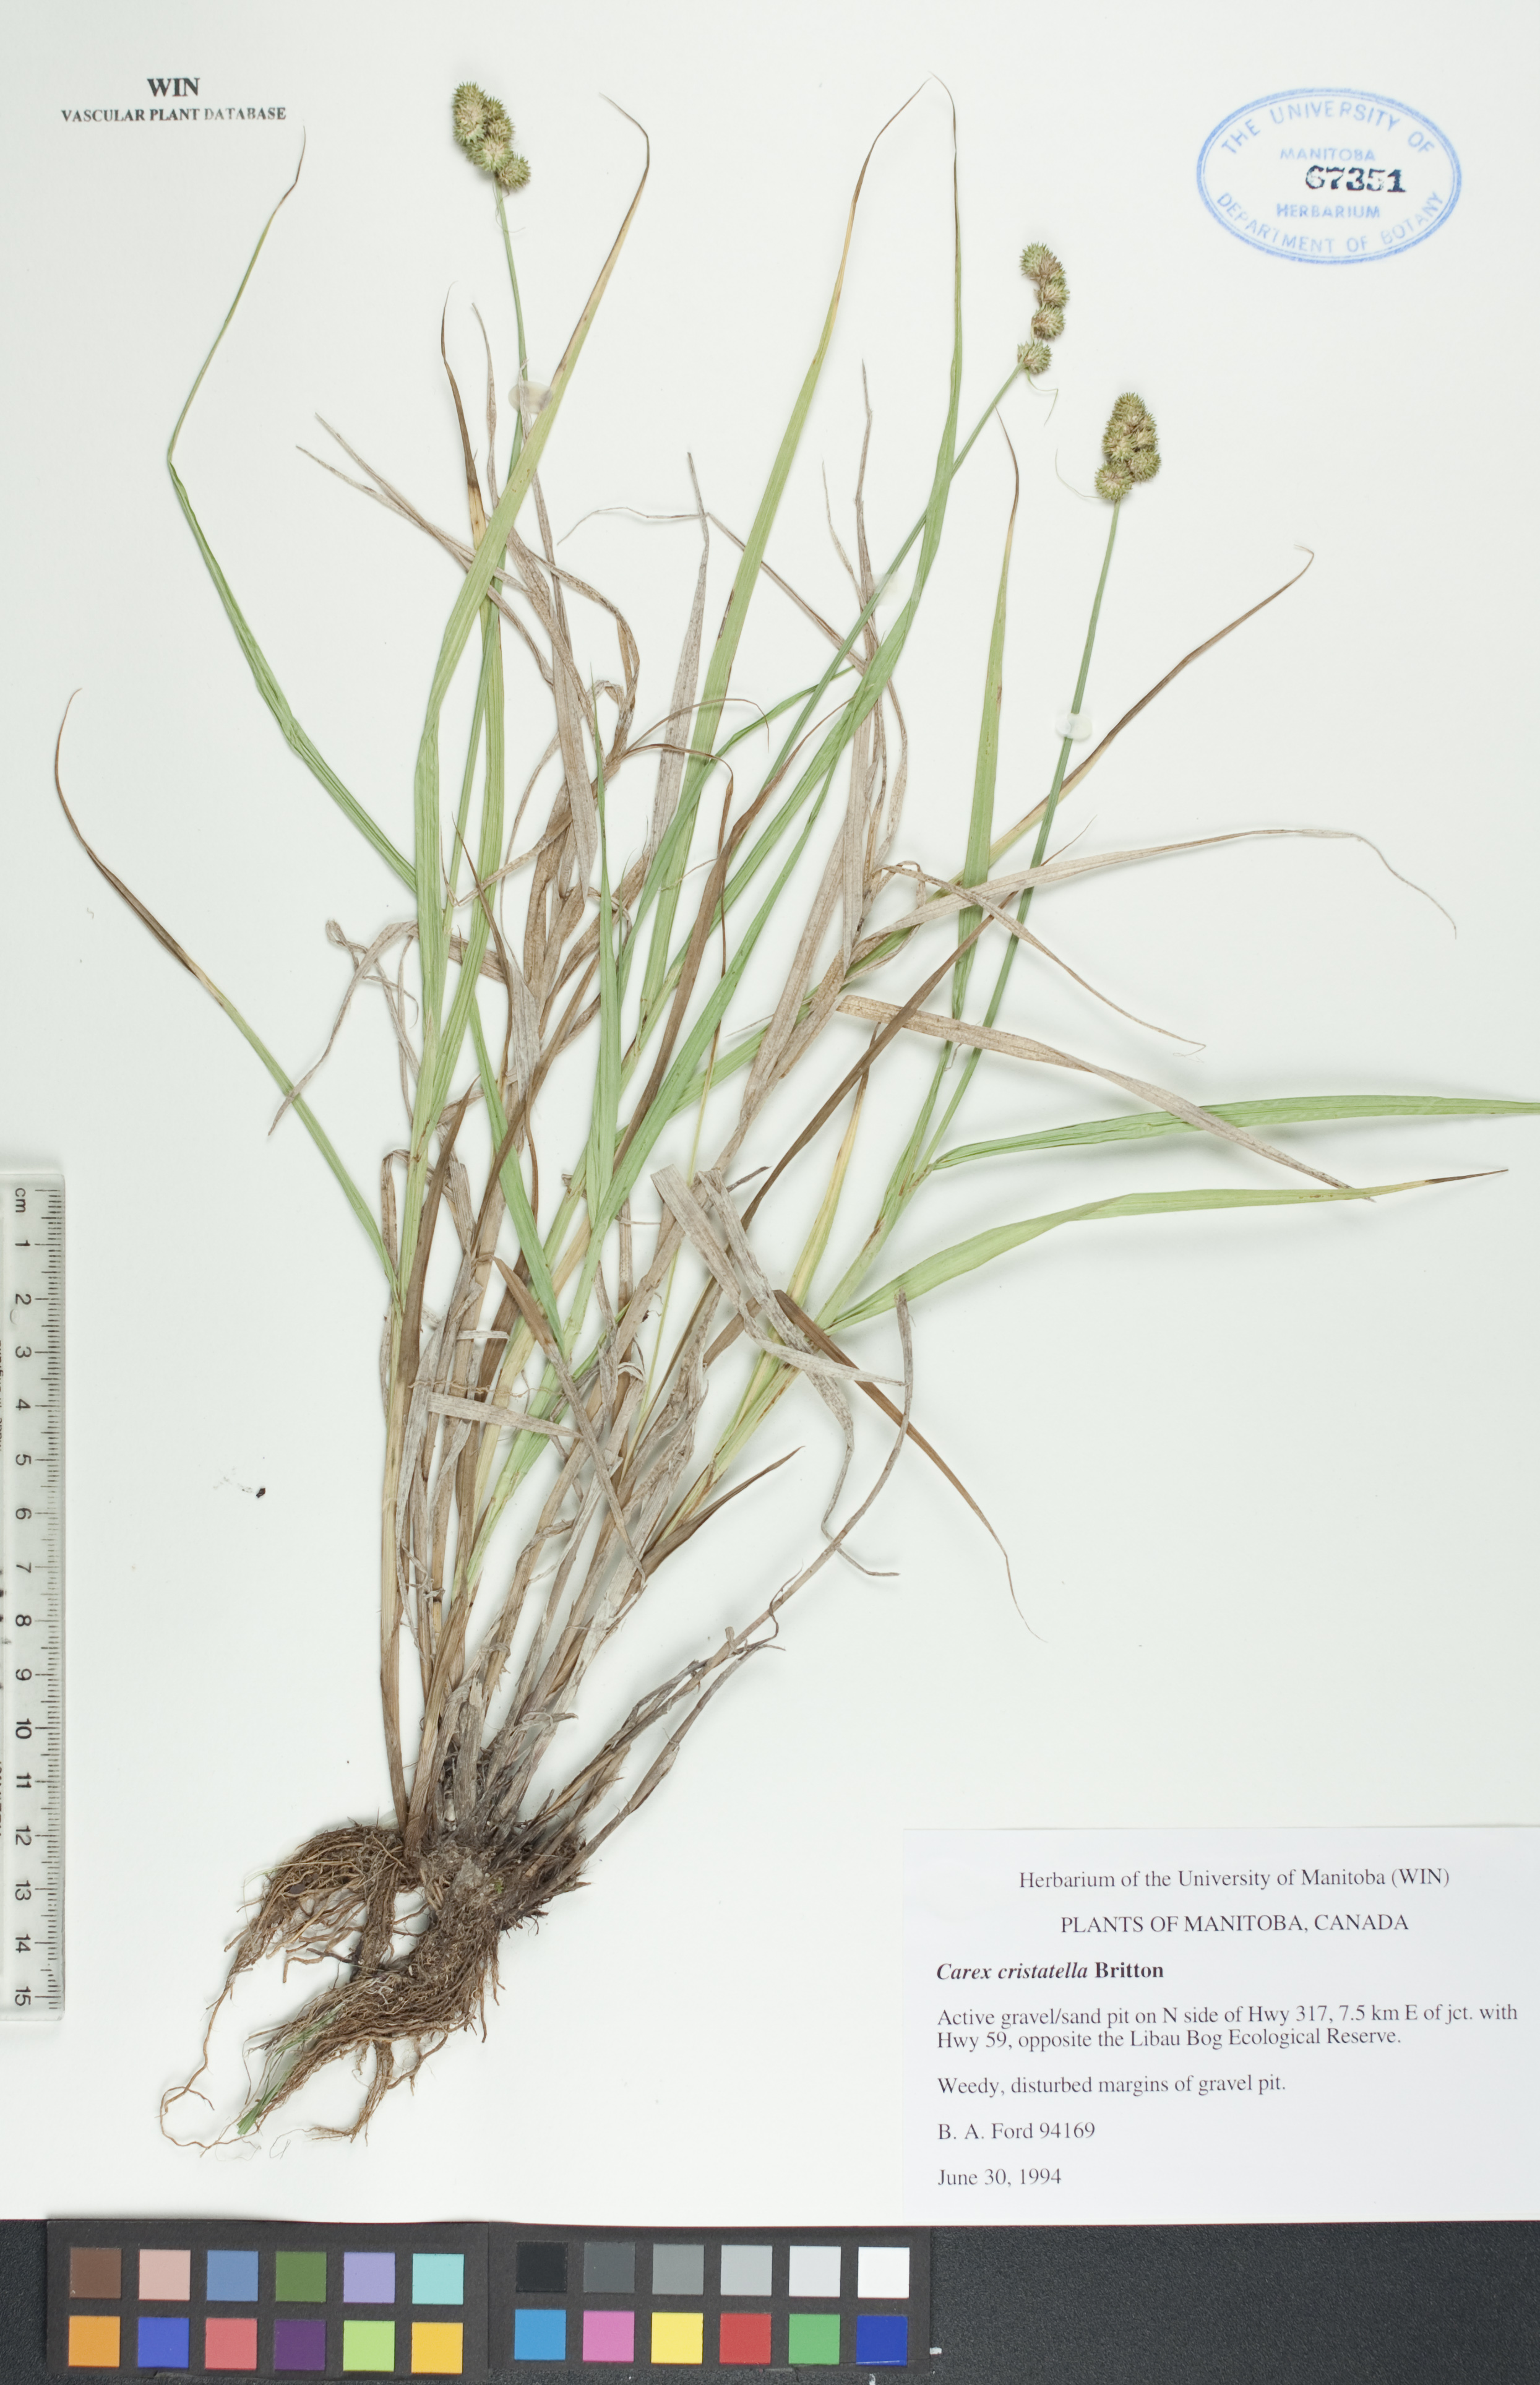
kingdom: Plantae
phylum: Tracheophyta
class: Liliopsida
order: Poales
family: Cyperaceae
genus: Carex
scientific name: Carex cristatella
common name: Crested oval sedge
